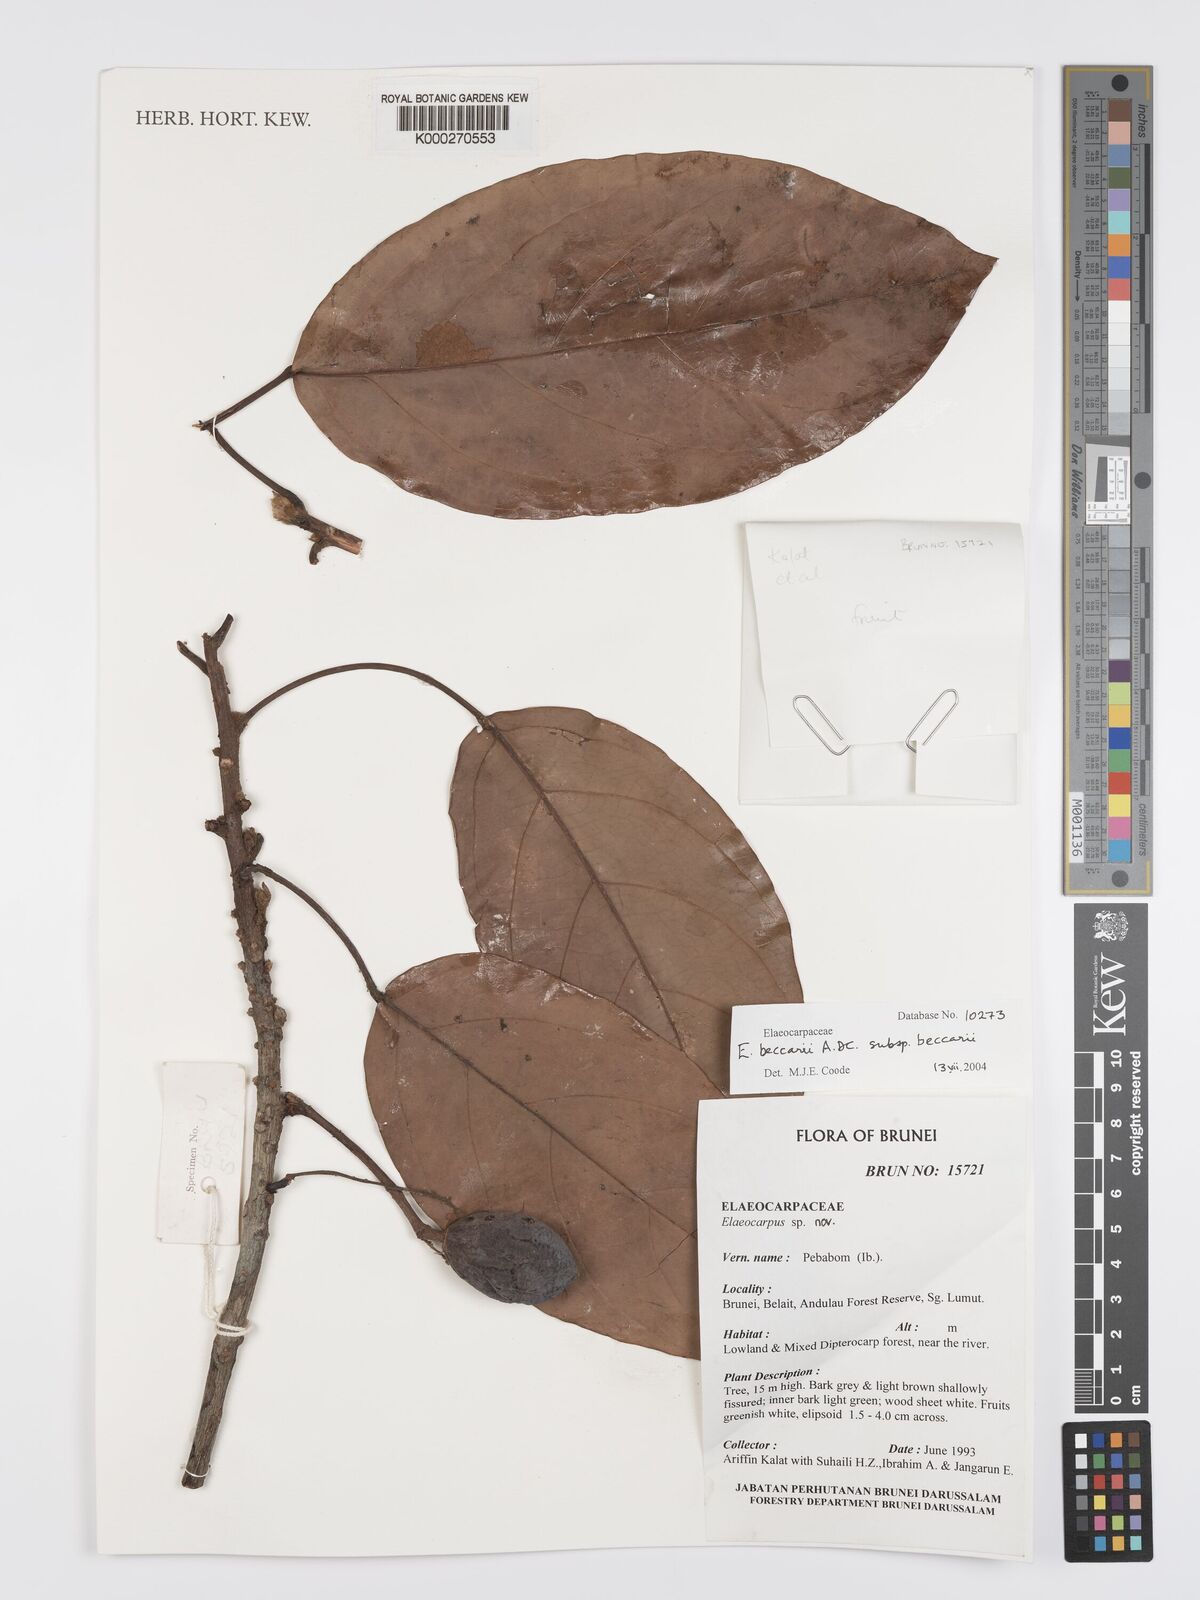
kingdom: Plantae
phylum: Tracheophyta
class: Magnoliopsida
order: Oxalidales
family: Elaeocarpaceae
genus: Elaeocarpus
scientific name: Elaeocarpus beccarii
